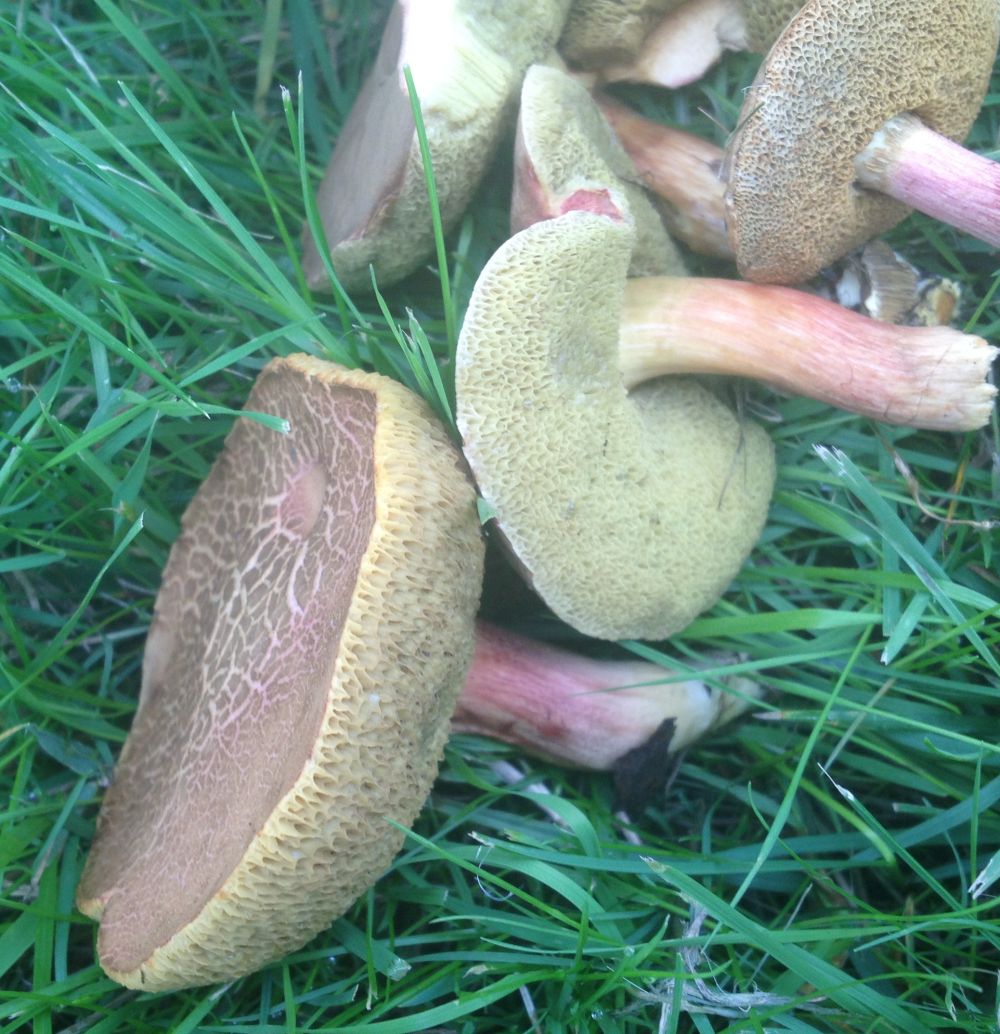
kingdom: Fungi
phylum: Basidiomycota
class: Agaricomycetes
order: Boletales
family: Boletaceae
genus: Xerocomellus
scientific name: Xerocomellus chrysenteron
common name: rødsprukken rørhat
